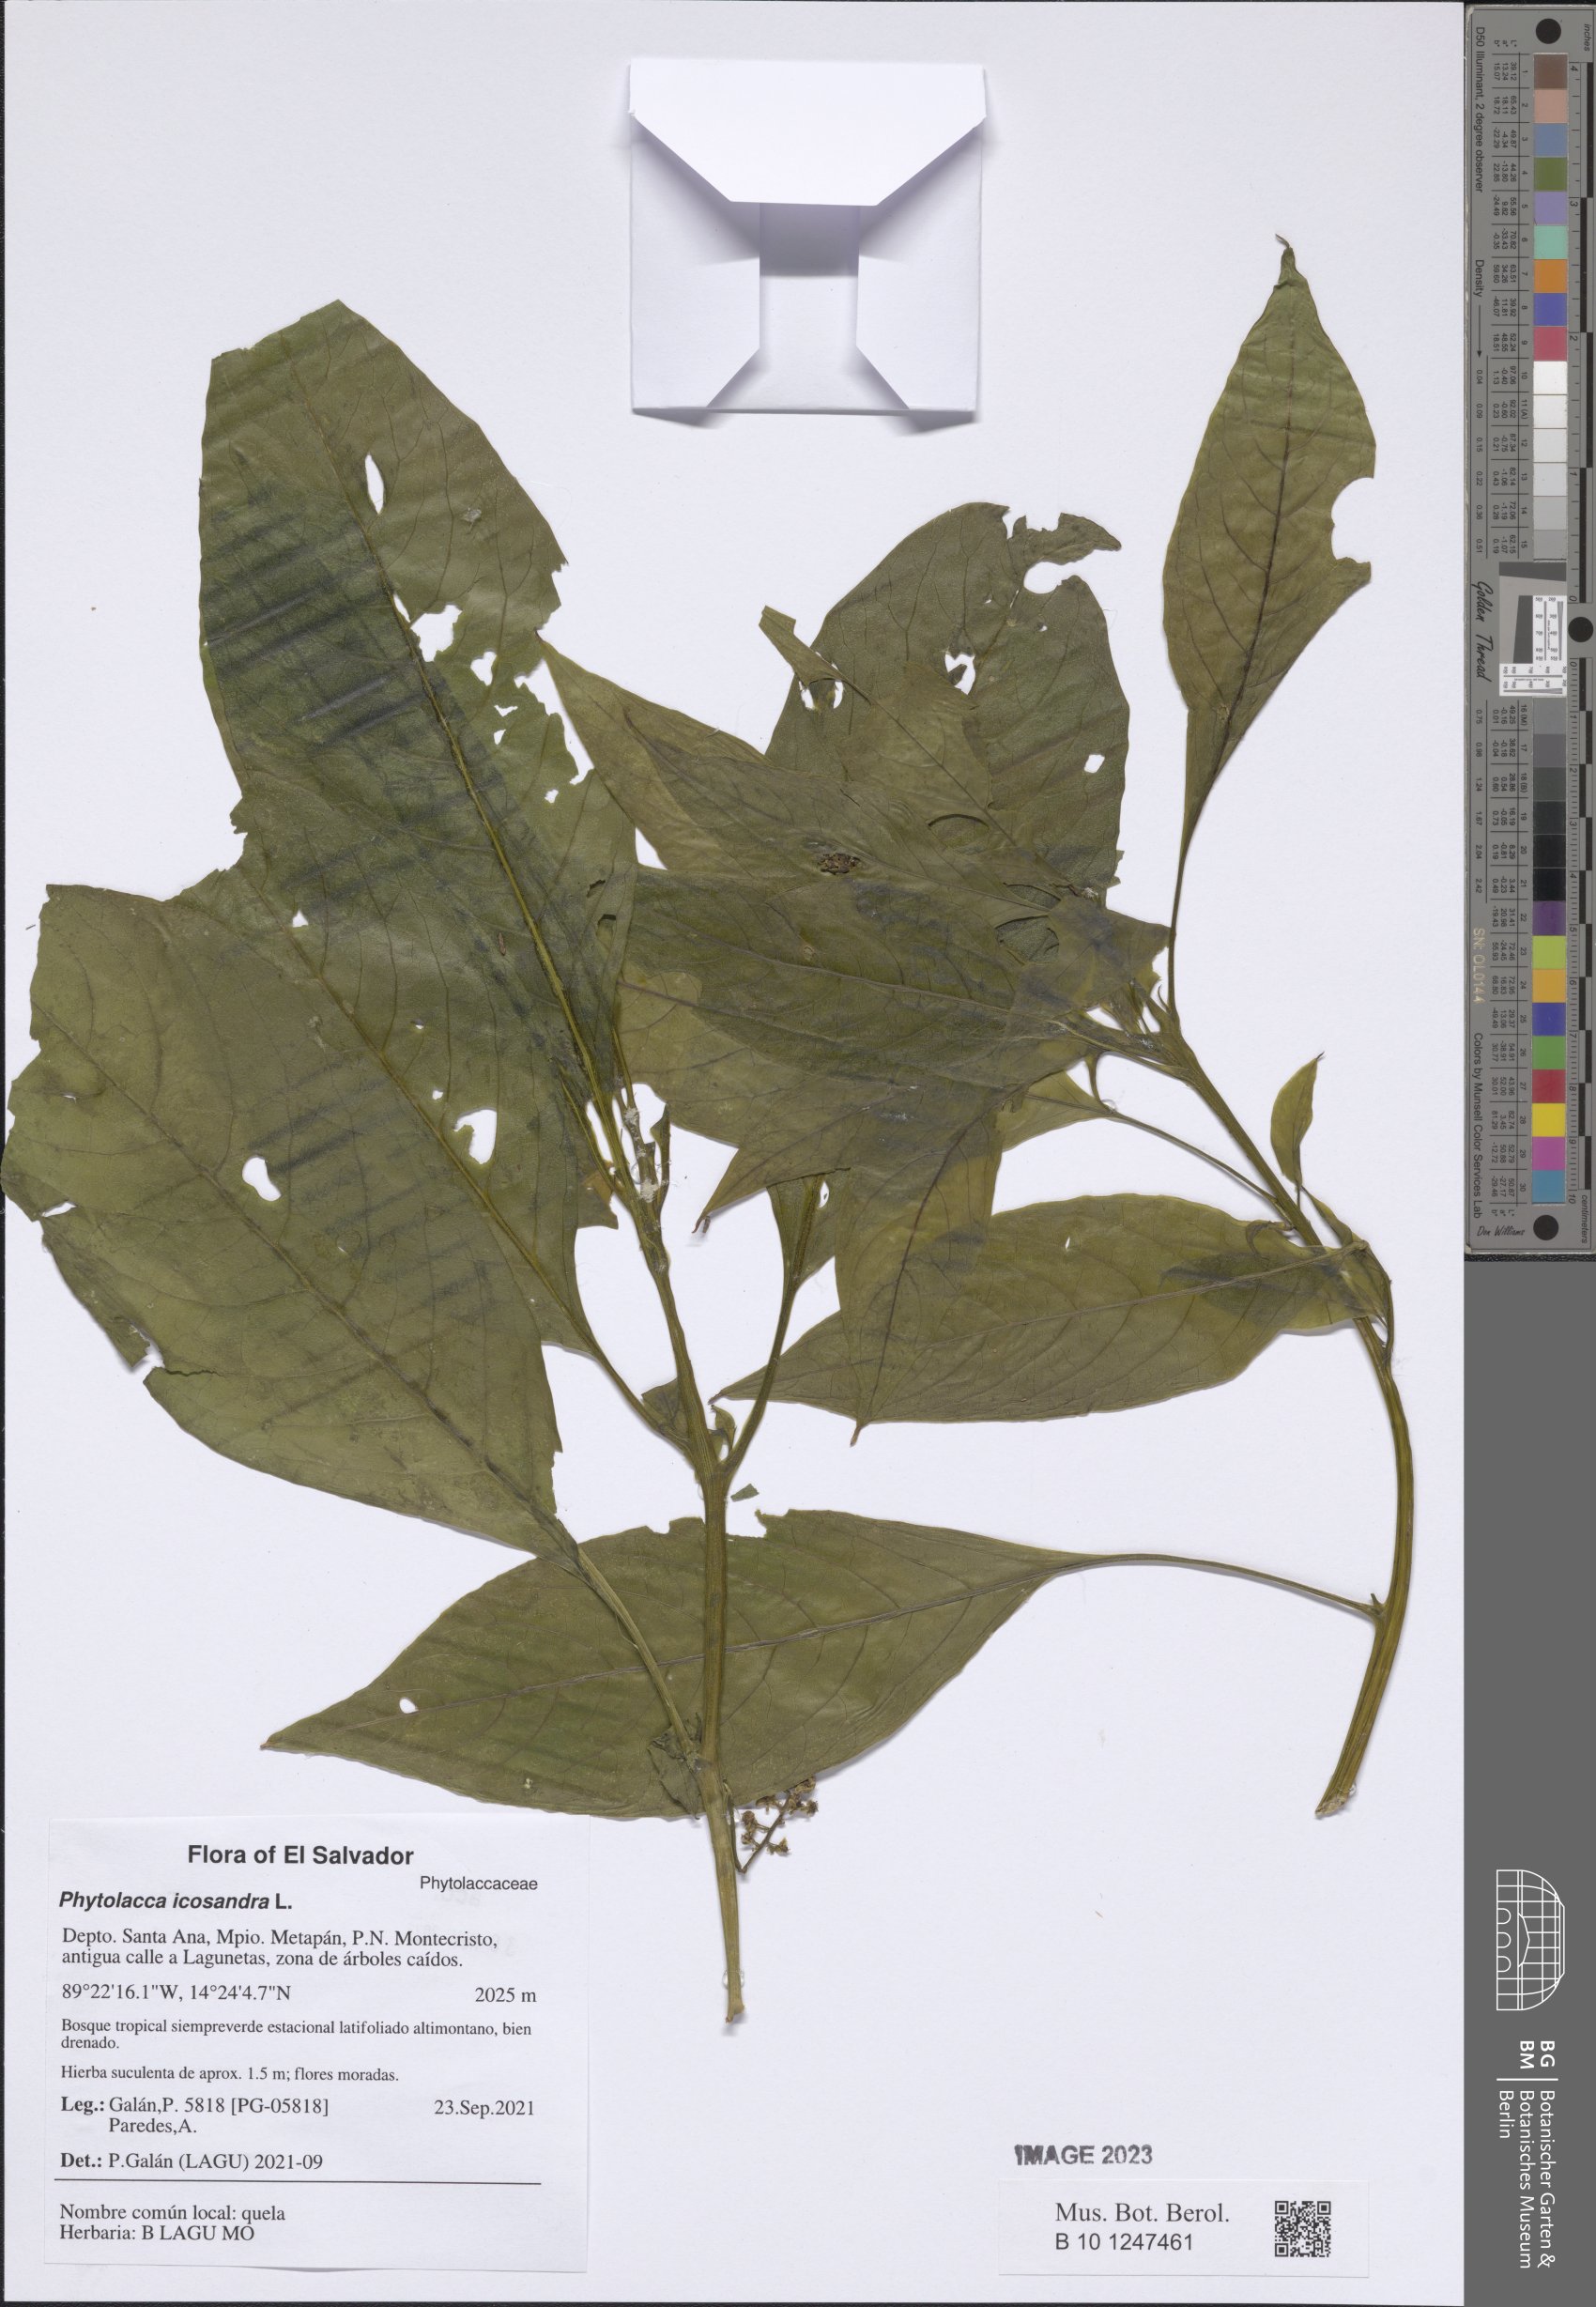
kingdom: Plantae
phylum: Tracheophyta
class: Magnoliopsida
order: Caryophyllales
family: Phytolaccaceae
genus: Phytolacca
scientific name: Phytolacca icosandra
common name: Button pokeweed
